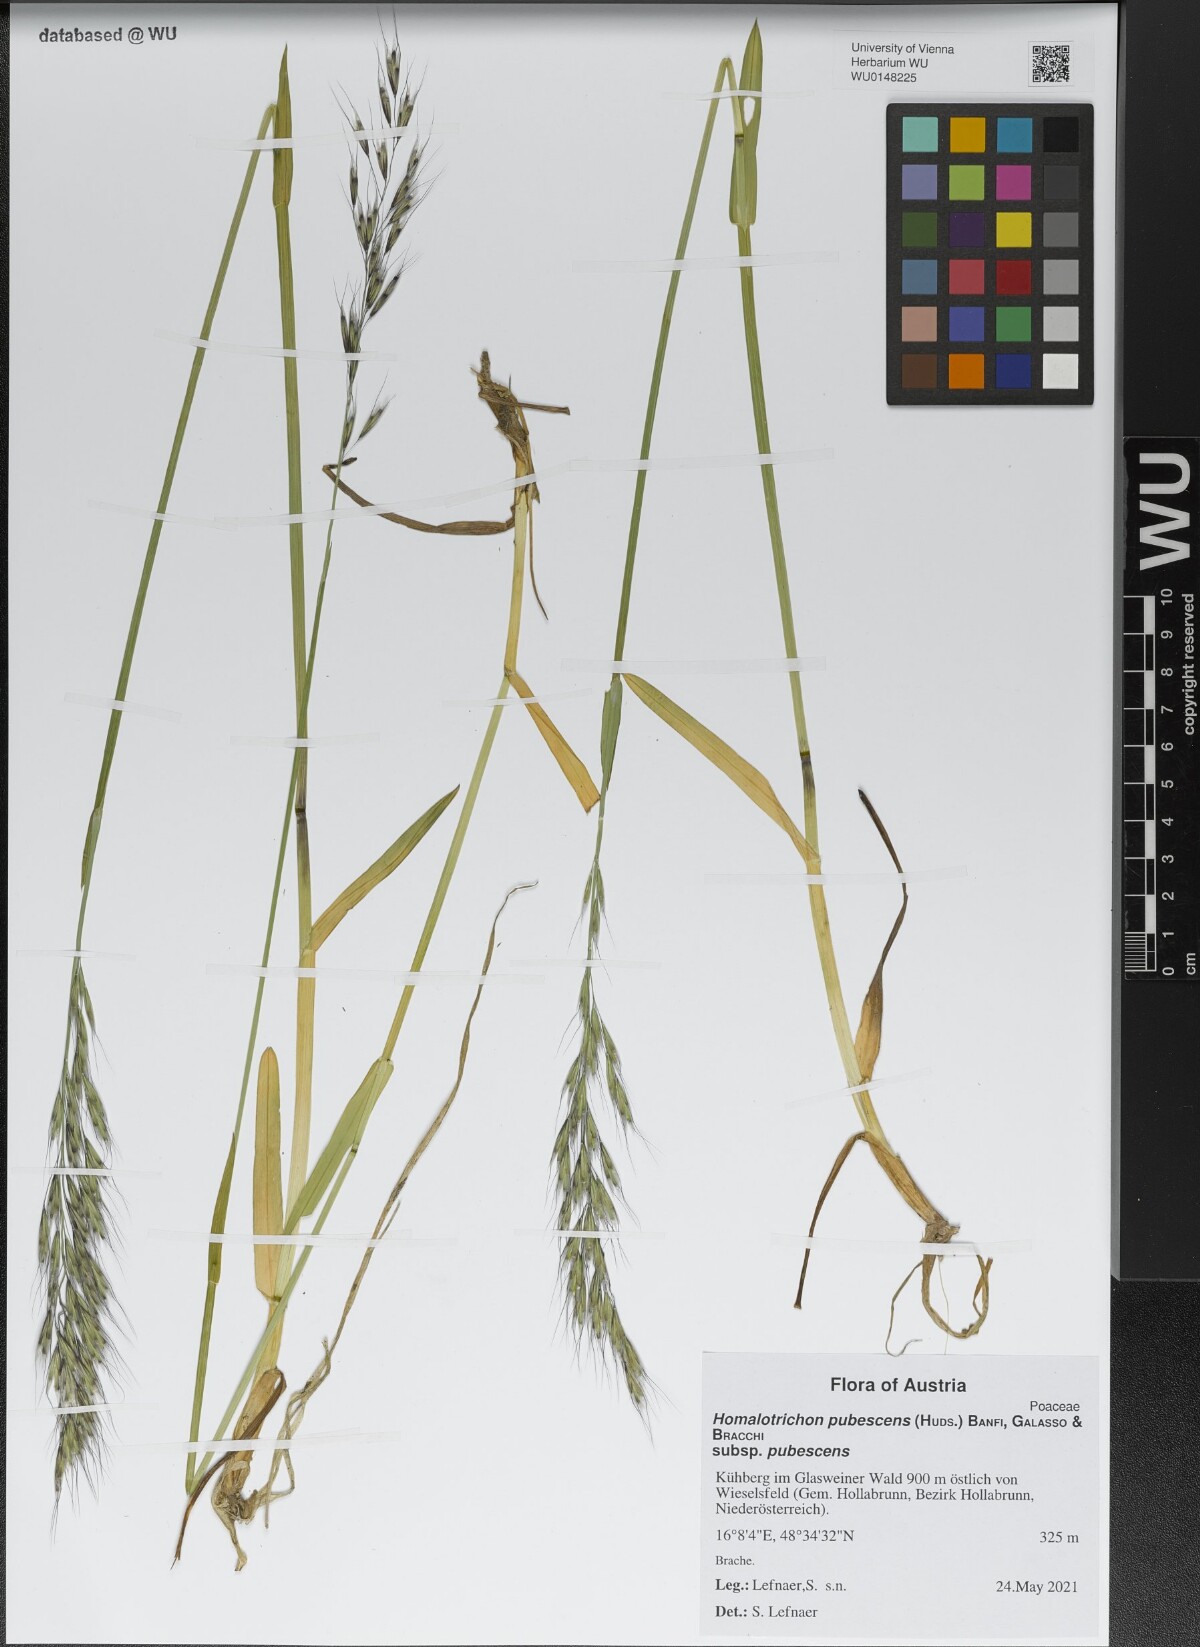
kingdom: Plantae
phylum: Tracheophyta
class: Liliopsida
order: Poales
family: Poaceae
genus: Avenula
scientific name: Avenula pubescens
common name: Downy alpine oatgrass
